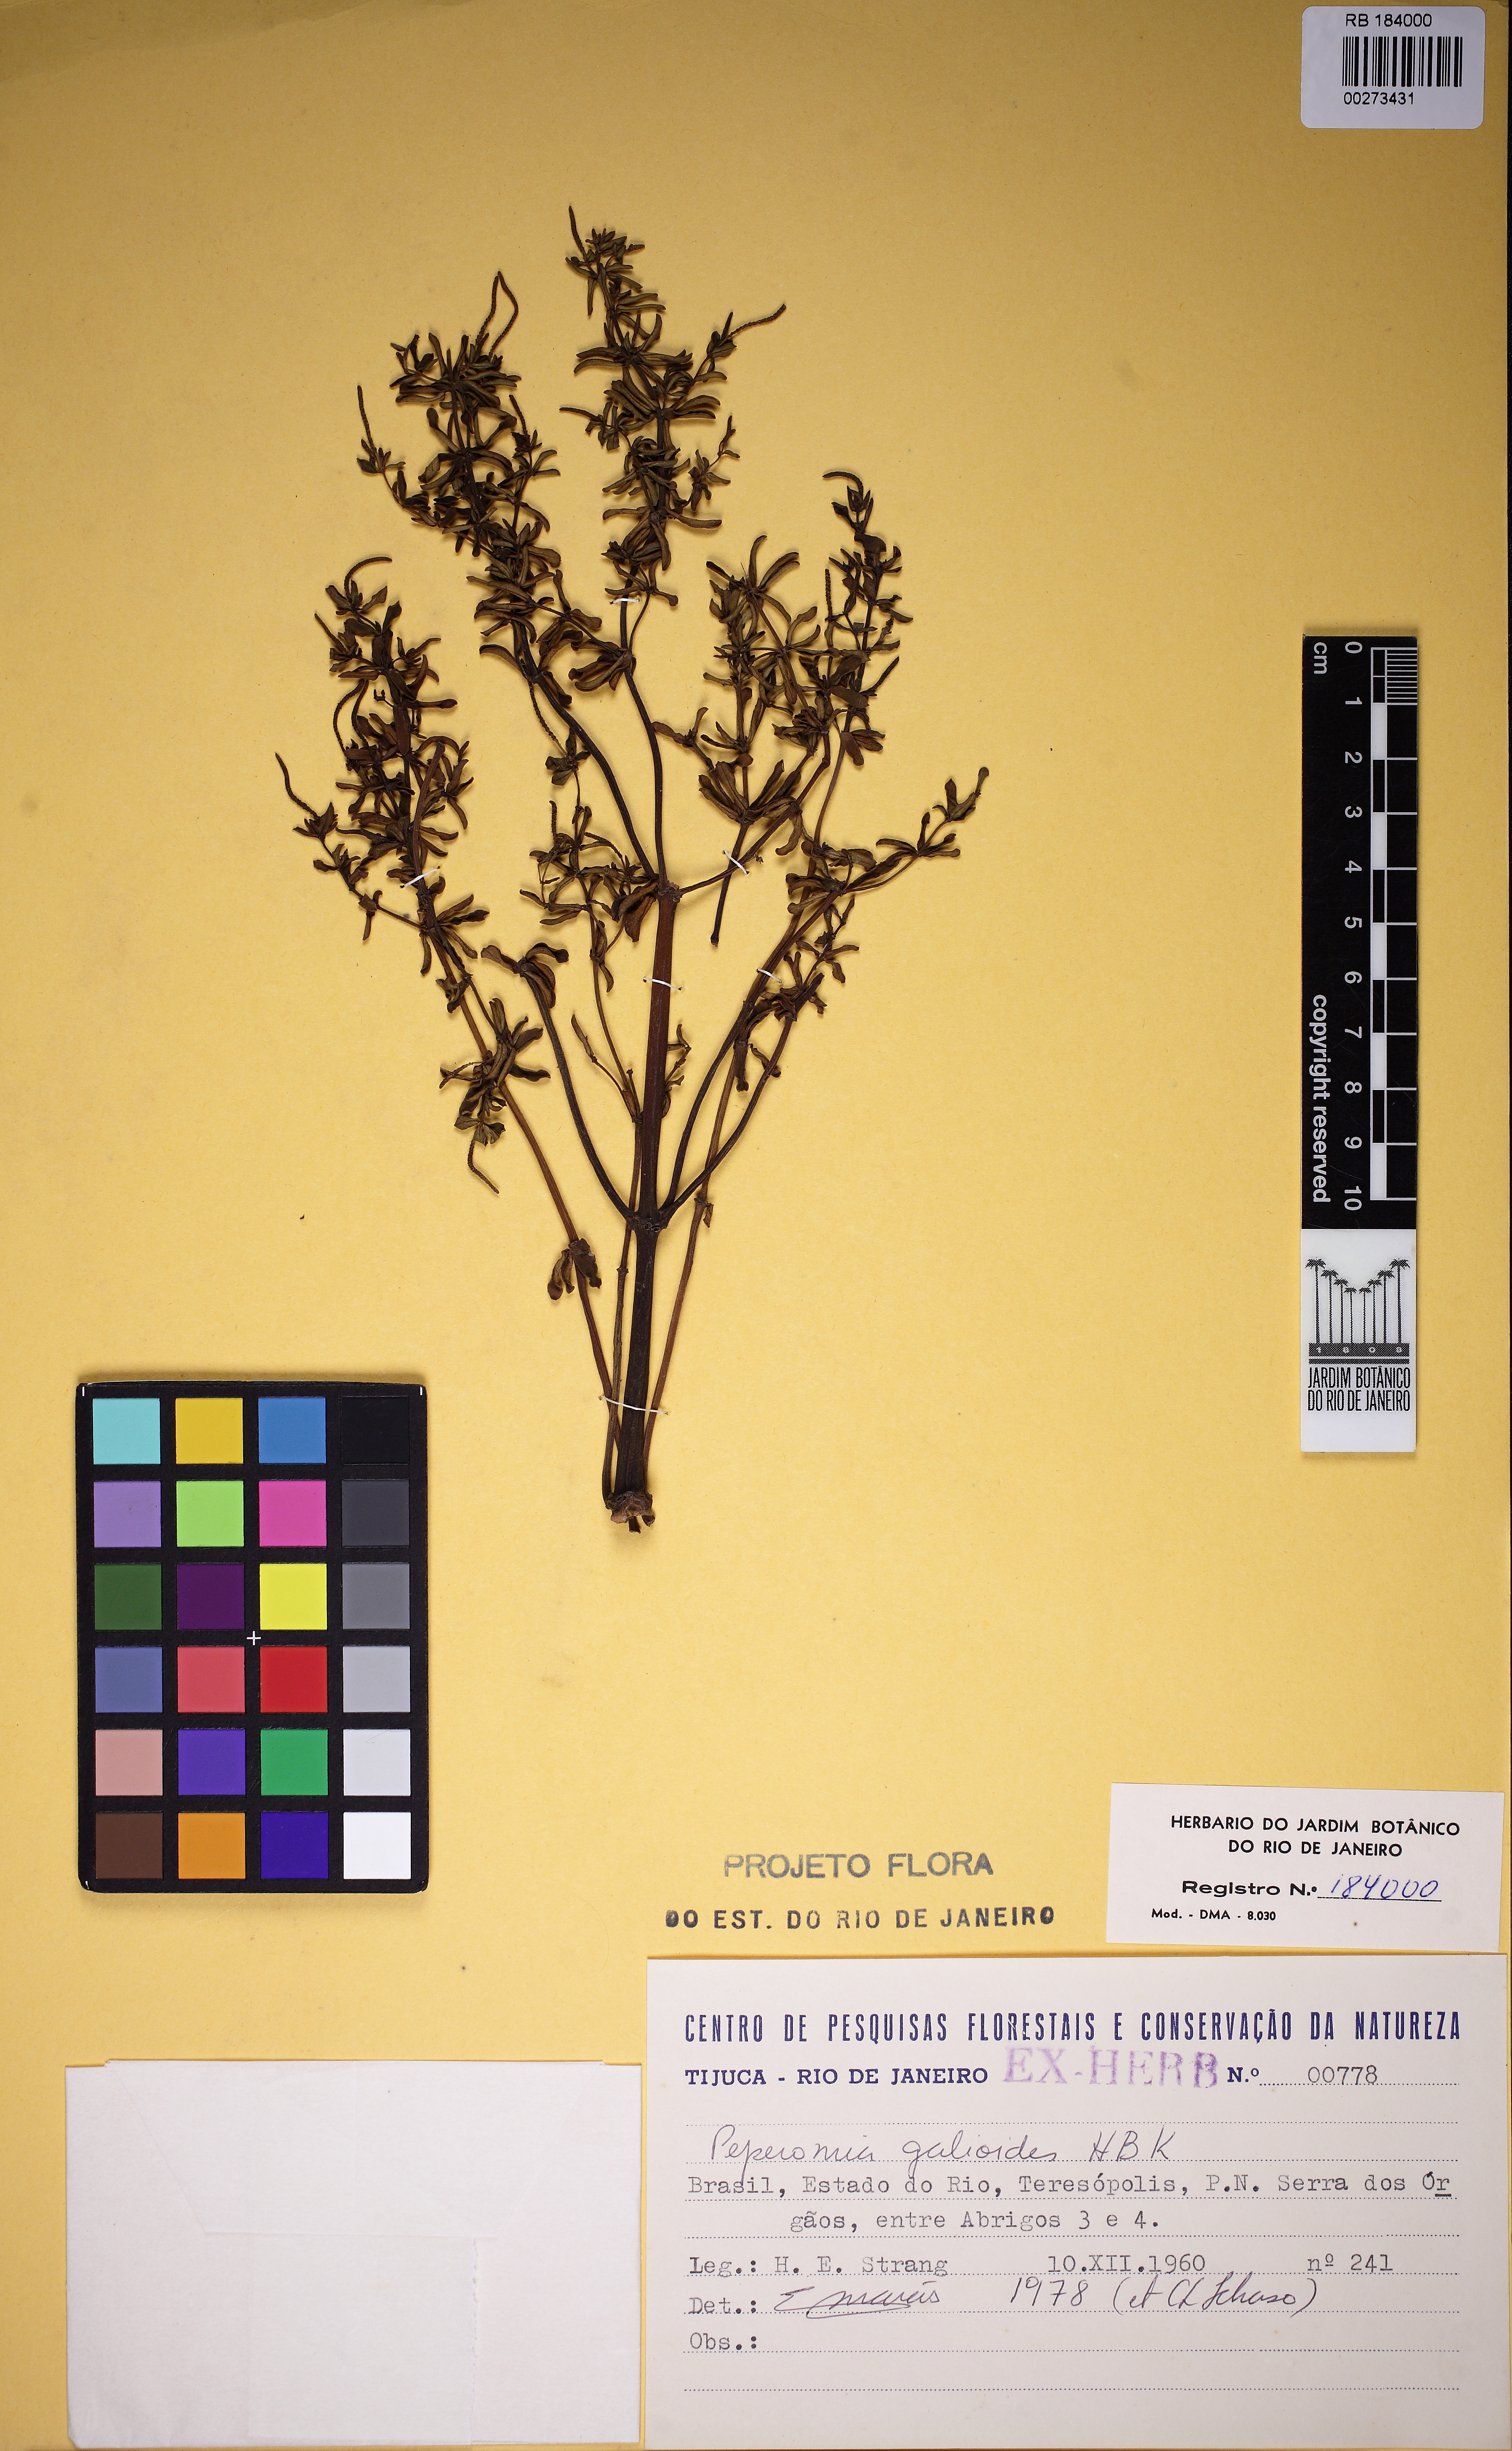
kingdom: Plantae
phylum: Tracheophyta
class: Magnoliopsida
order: Piperales
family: Piperaceae
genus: Peperomia
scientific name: Peperomia galioides
